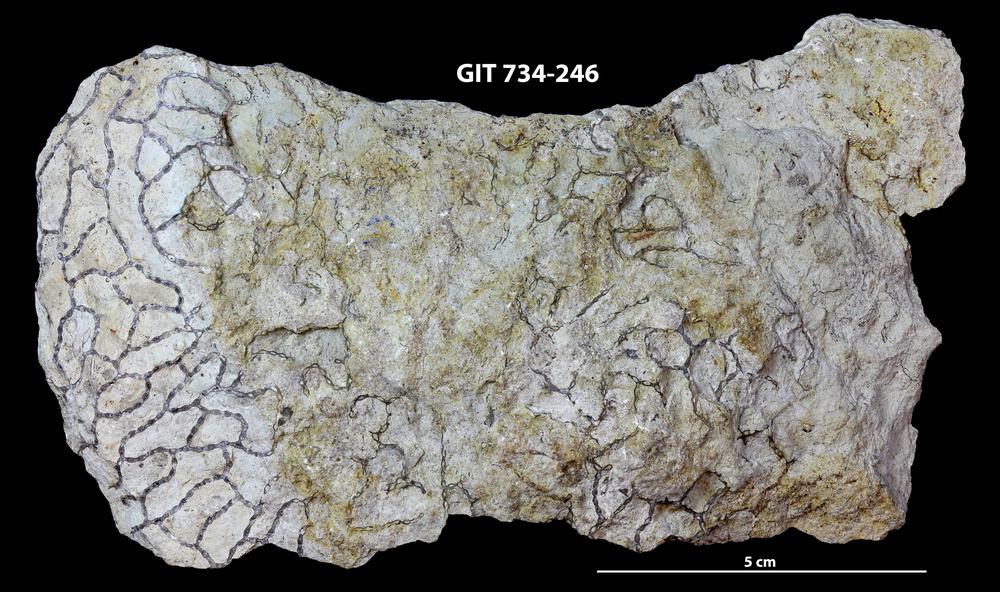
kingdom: Animalia
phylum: Cnidaria
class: Anthozoa
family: Cateniporidae
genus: Catenipora
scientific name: Catenipora
